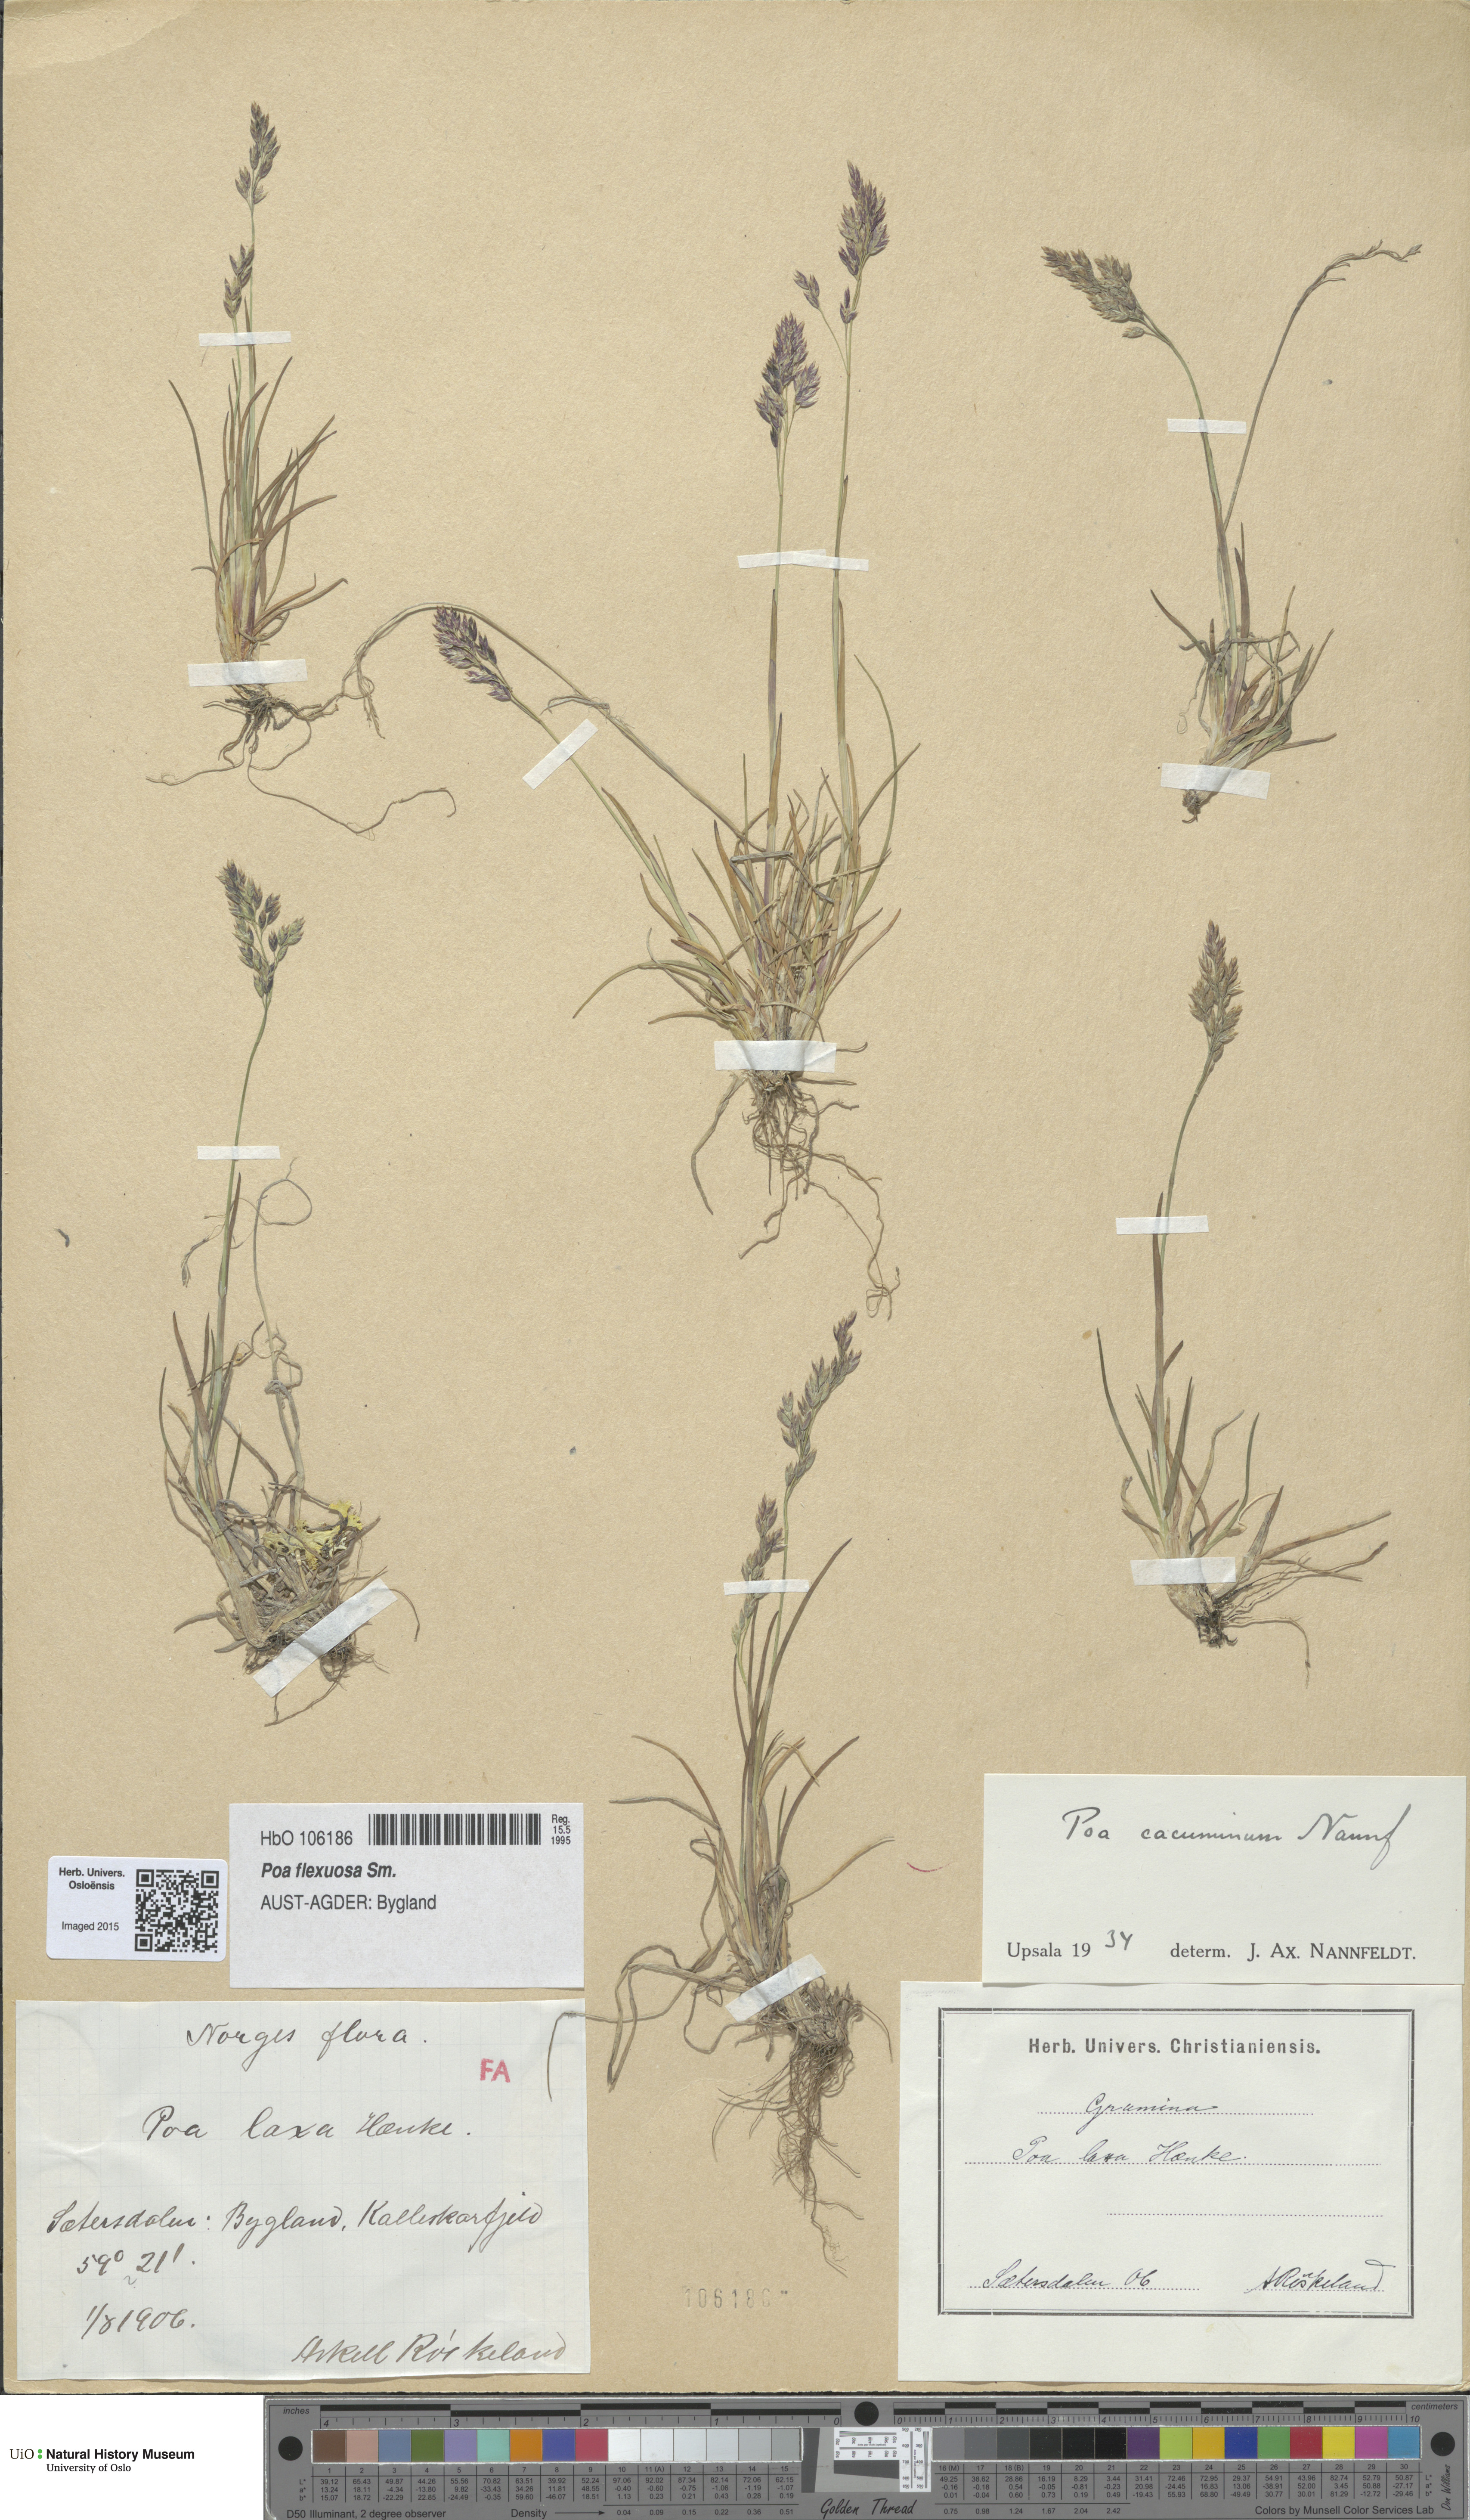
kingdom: Plantae
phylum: Tracheophyta
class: Liliopsida
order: Poales
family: Poaceae
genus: Poa
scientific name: Poa flexuosa
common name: Wavy meadow-grass
